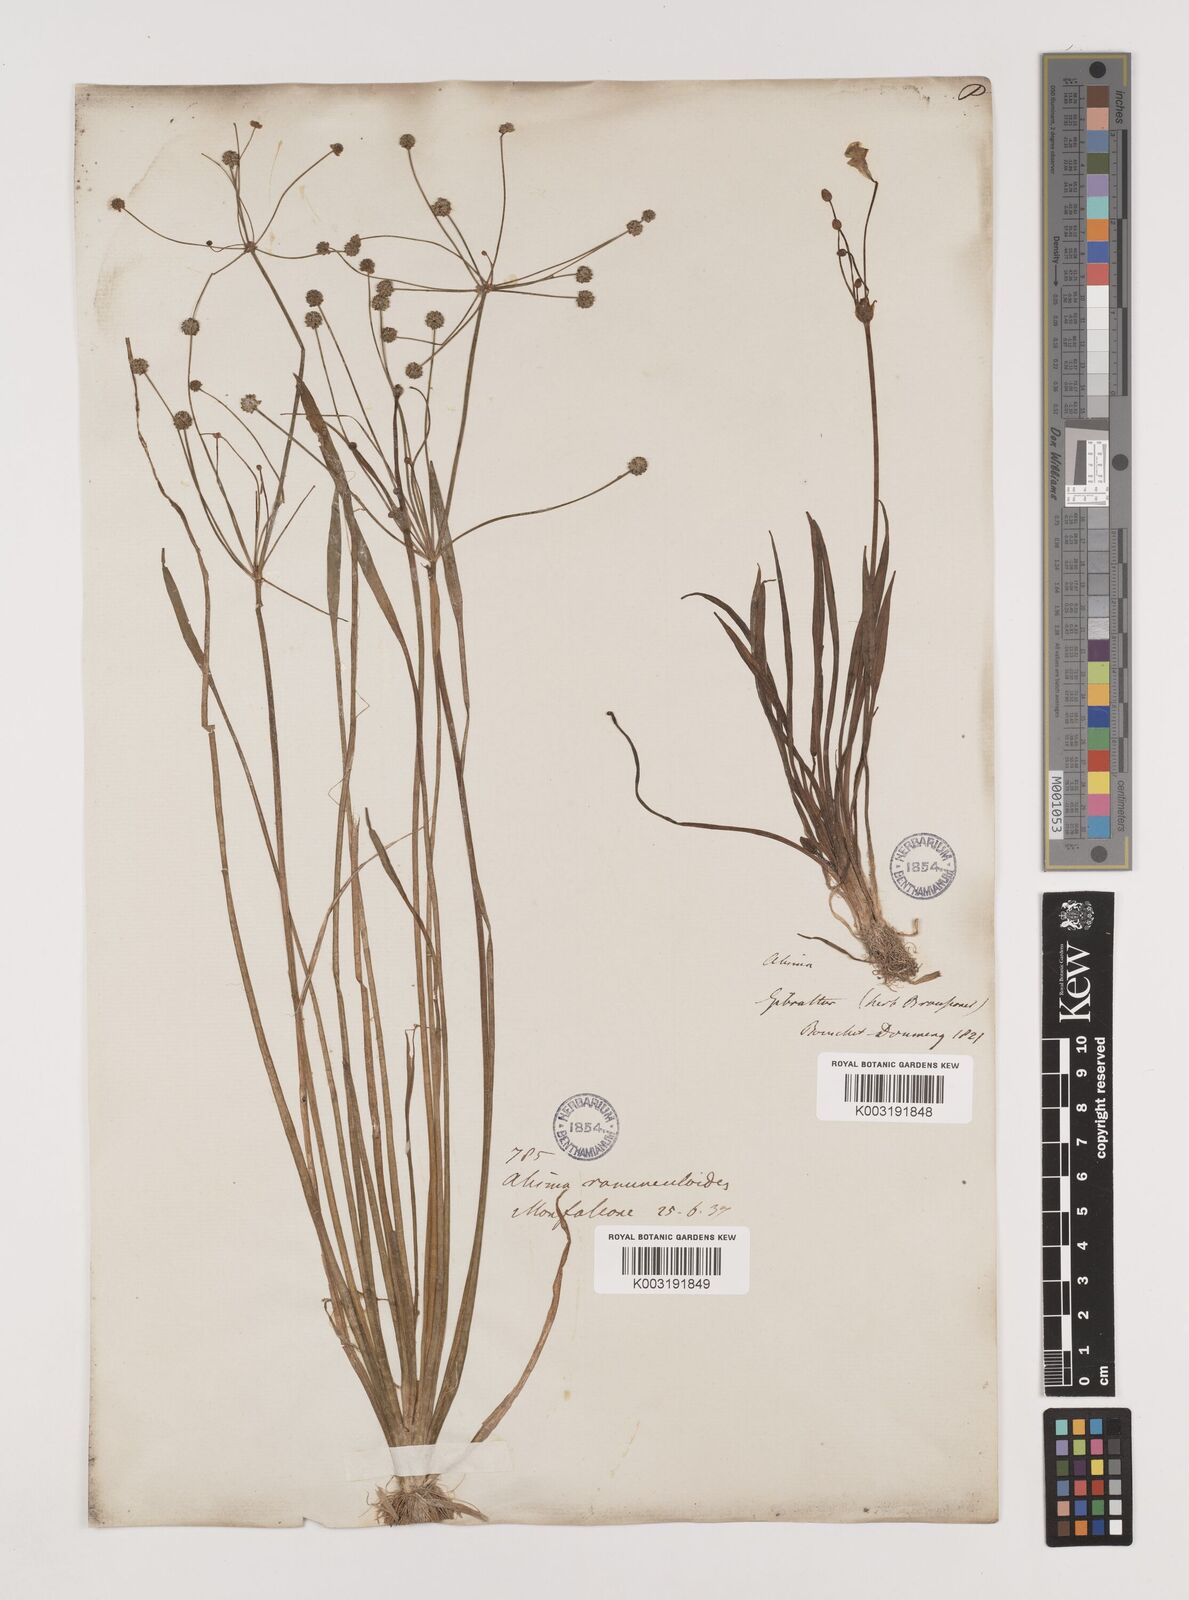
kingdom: Plantae
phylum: Tracheophyta
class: Liliopsida
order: Alismatales
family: Alismataceae
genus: Baldellia
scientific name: Baldellia ranunculoides
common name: Lesser water-plantain
